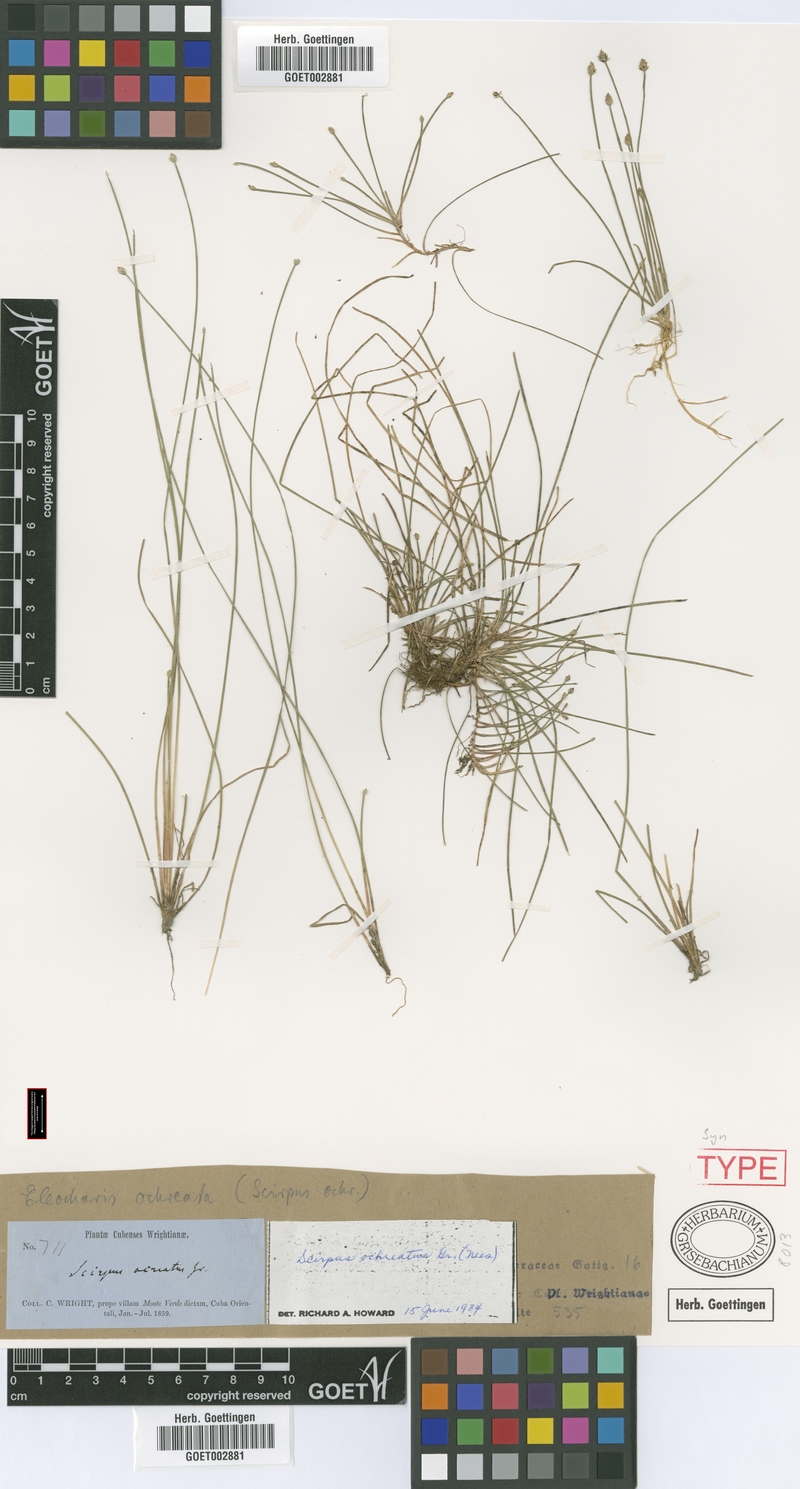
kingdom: Plantae
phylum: Tracheophyta
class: Liliopsida
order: Poales
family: Cyperaceae
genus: Eleocharis
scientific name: Eleocharis
